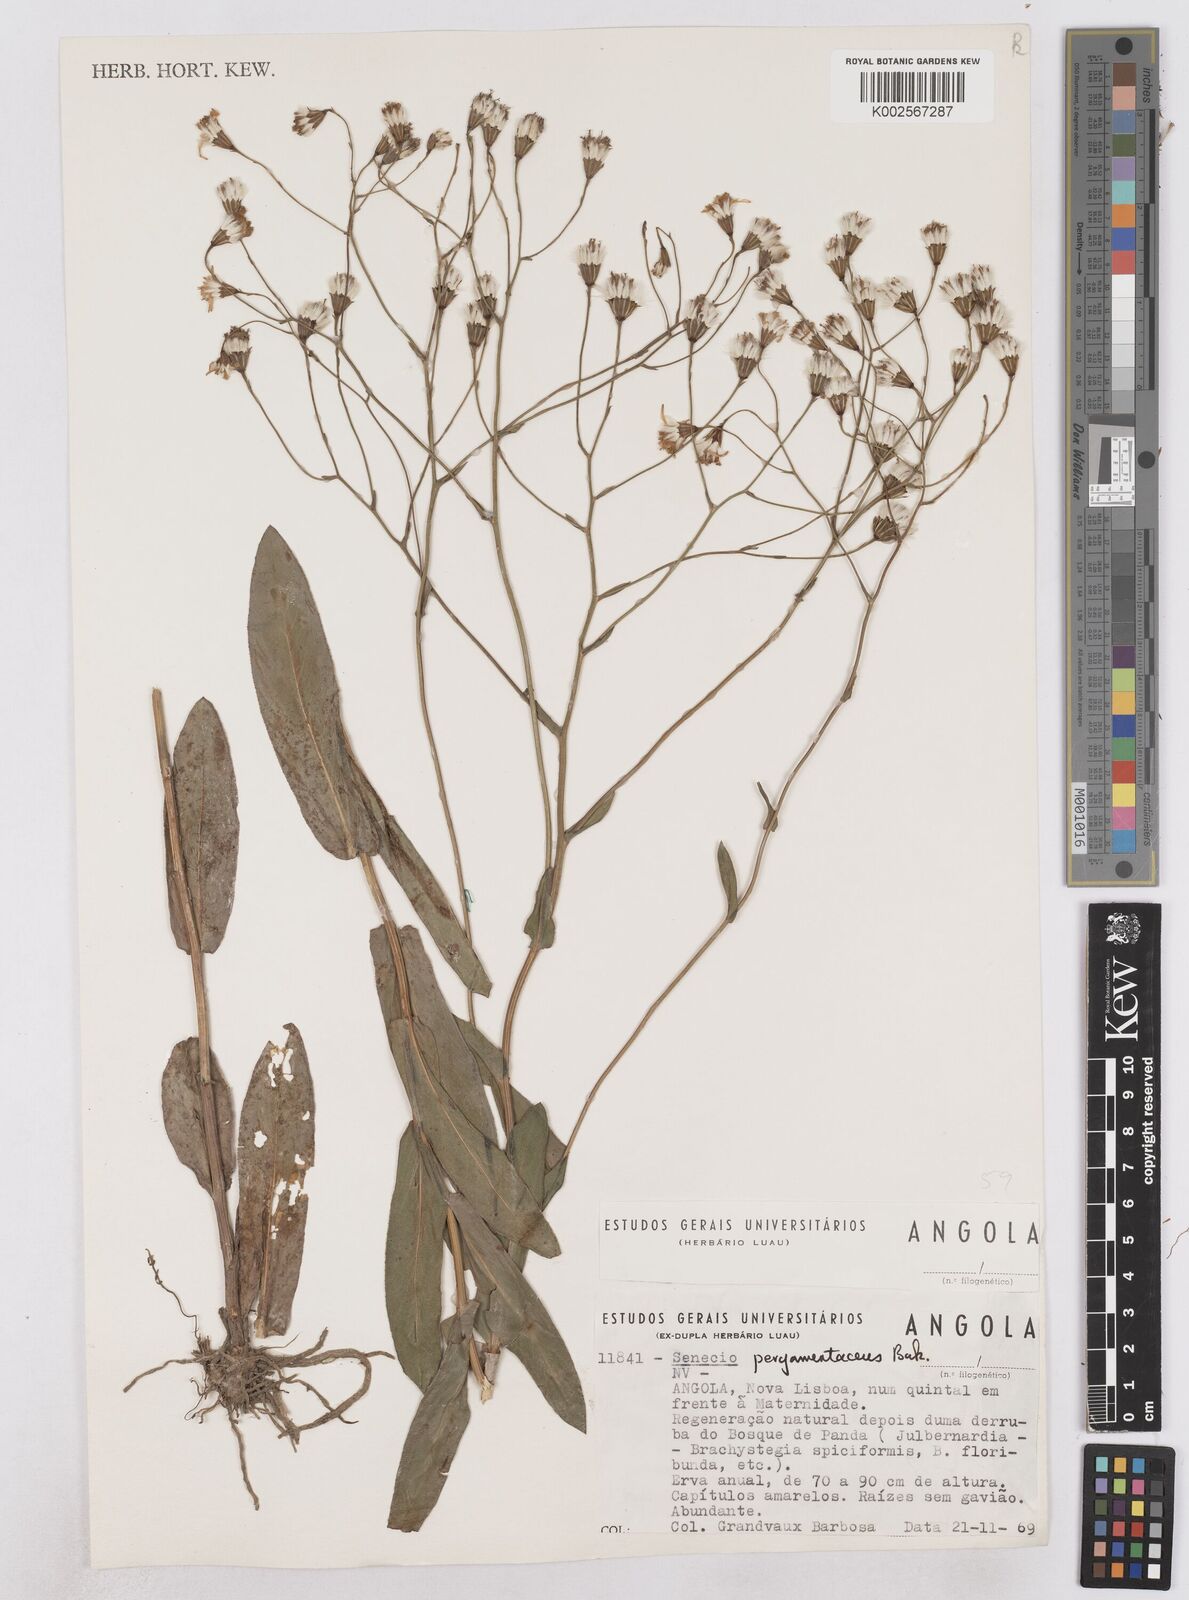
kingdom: Plantae
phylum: Tracheophyta
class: Magnoliopsida
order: Asterales
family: Asteraceae
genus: Senecio
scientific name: Senecio latifolius
